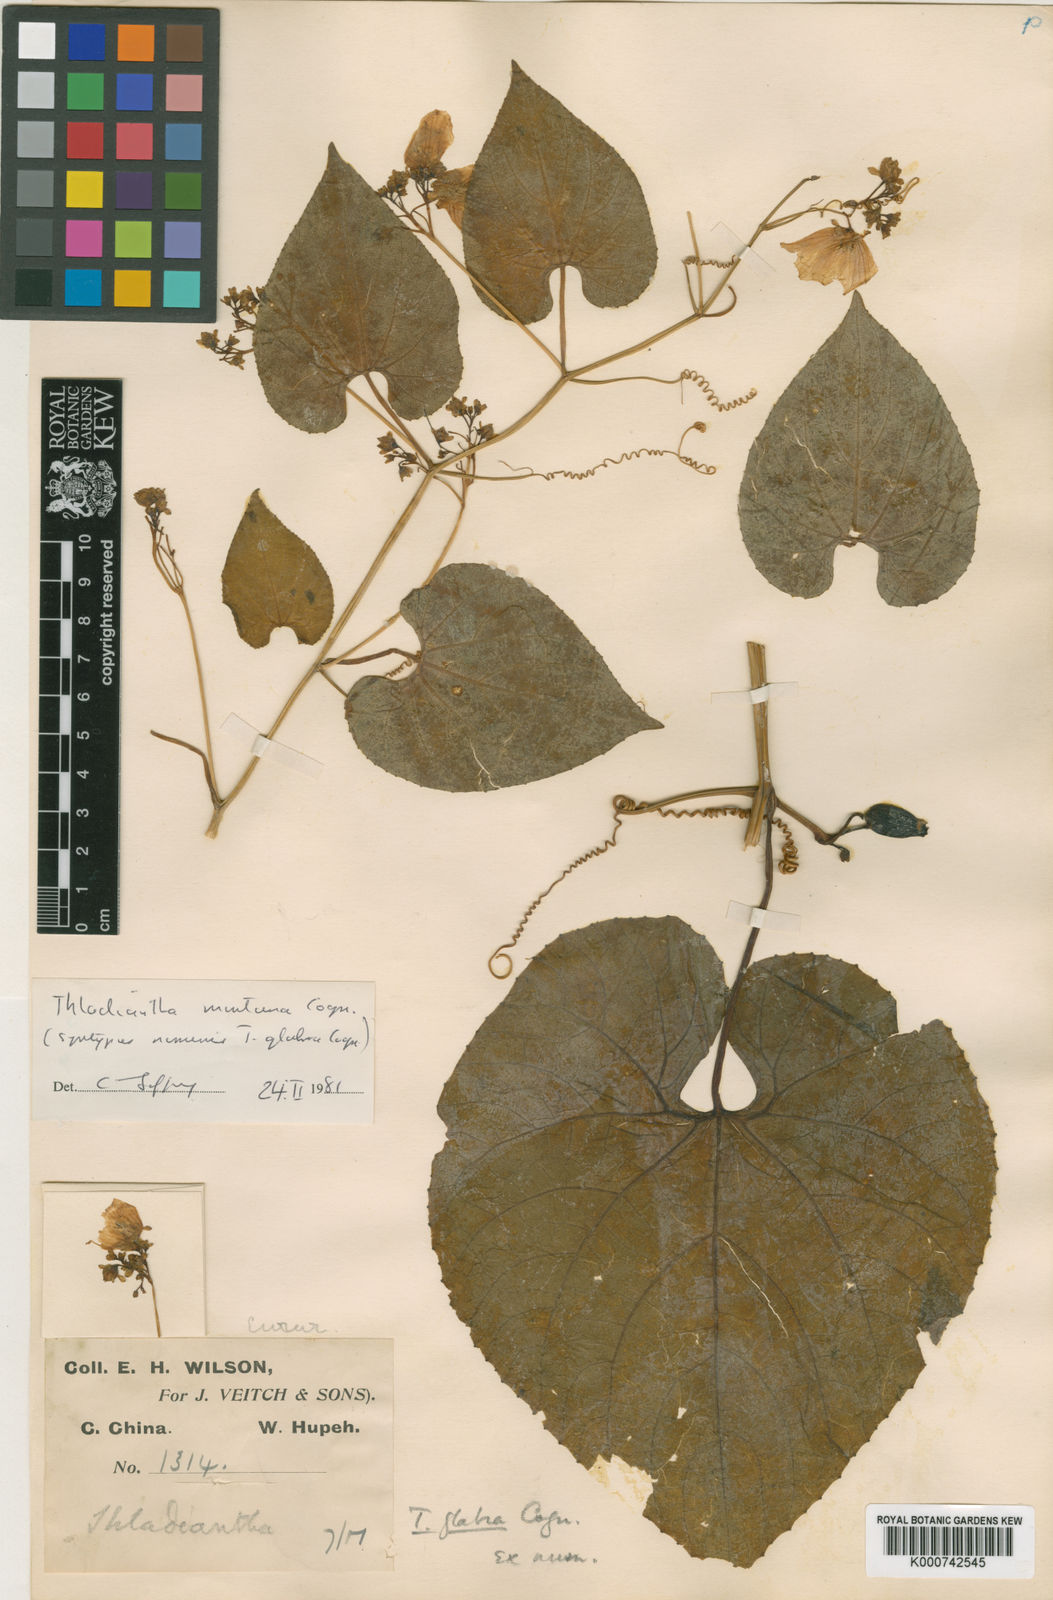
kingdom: Plantae
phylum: Tracheophyta
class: Magnoliopsida
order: Cucurbitales
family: Cucurbitaceae
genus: Thladiantha
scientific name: Thladiantha montana
